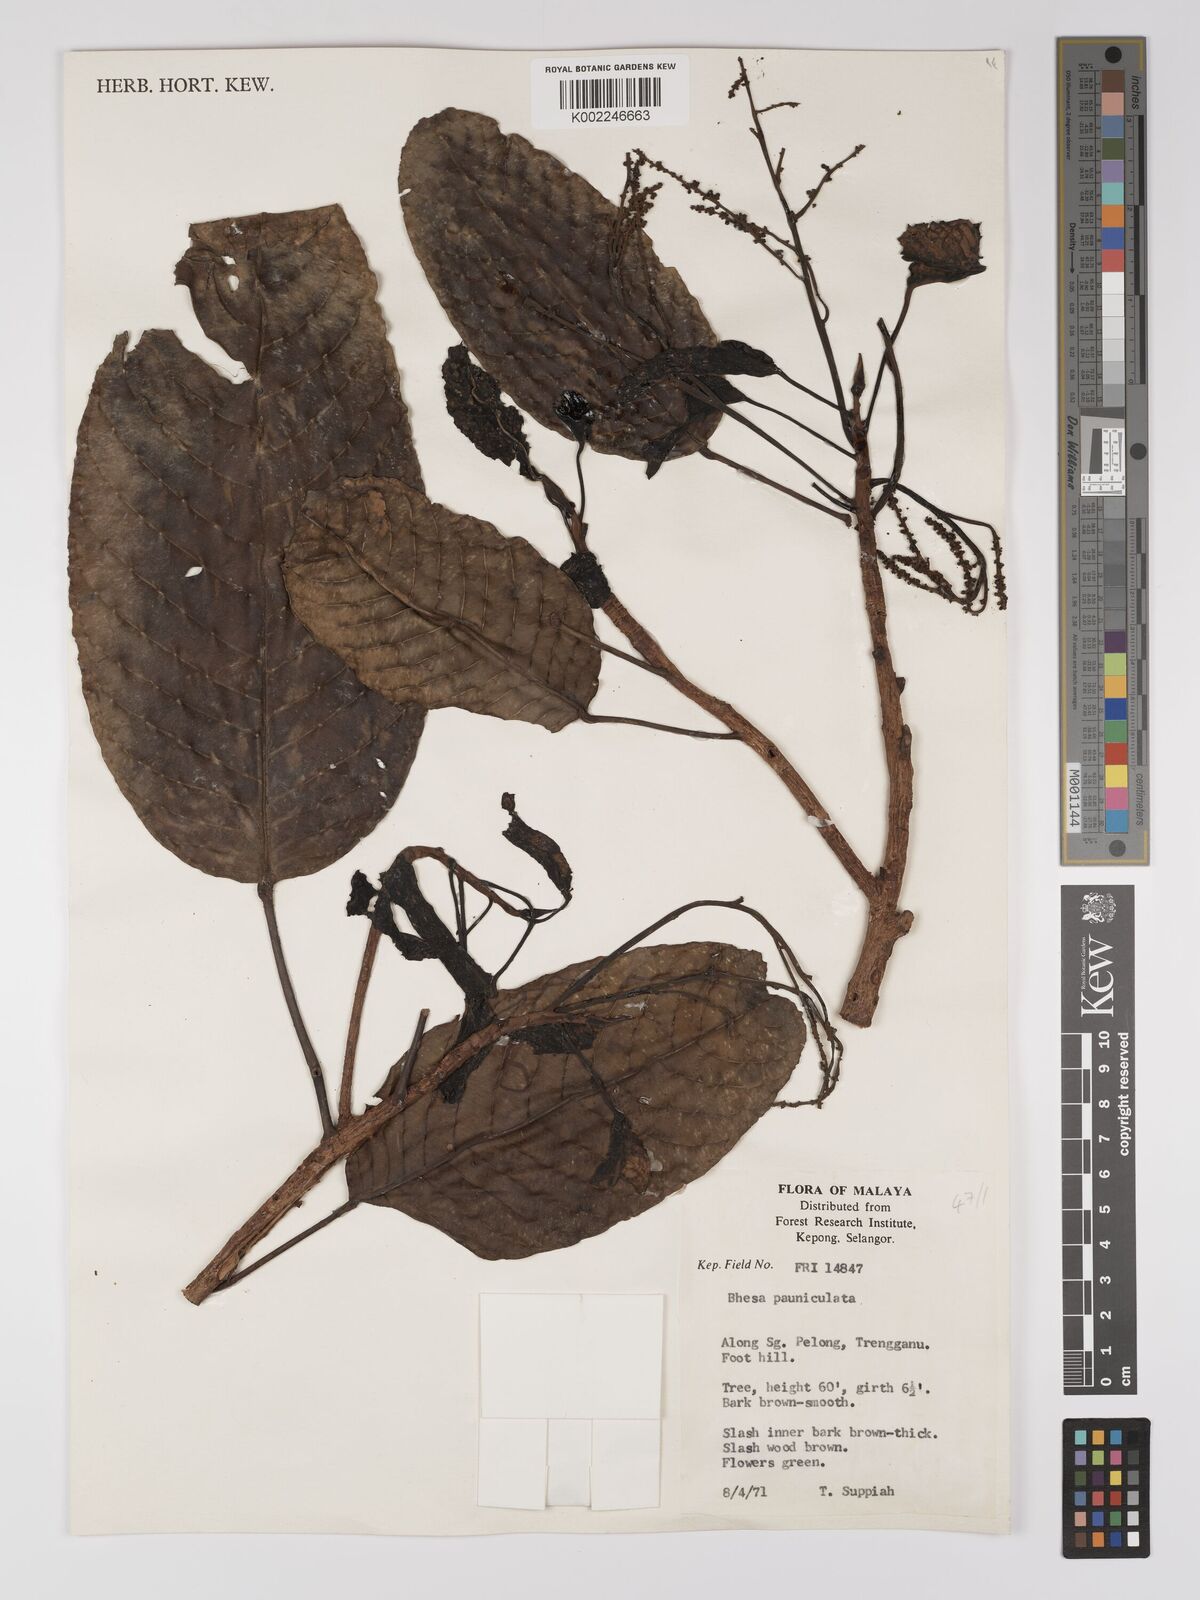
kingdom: Plantae
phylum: Tracheophyta
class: Magnoliopsida
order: Malpighiales
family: Centroplacaceae
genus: Bhesa
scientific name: Bhesa paniculata
